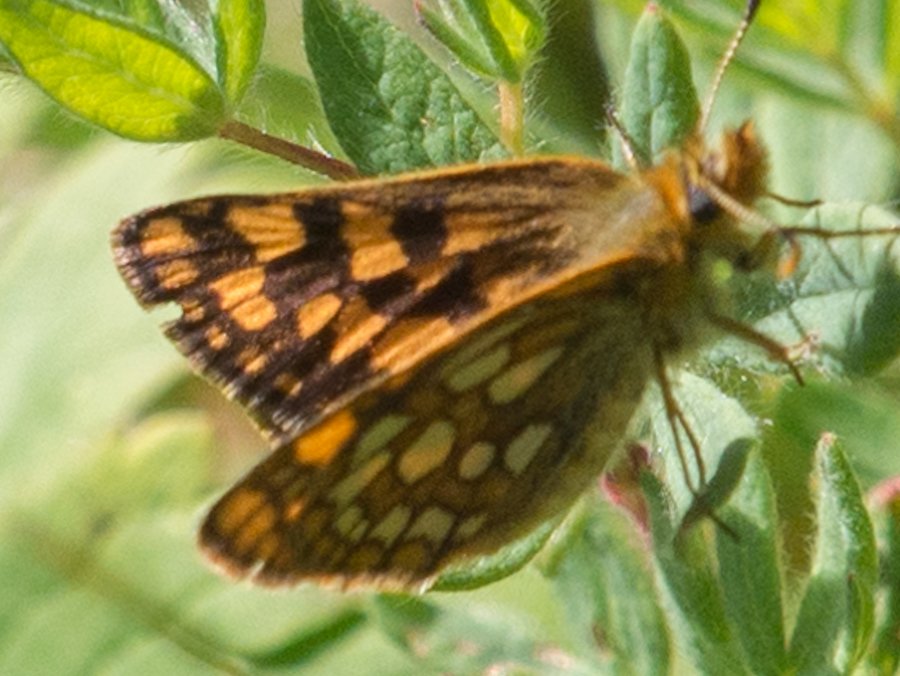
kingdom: Animalia
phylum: Arthropoda
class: Insecta
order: Lepidoptera
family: Hesperiidae
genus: Carterocephalus
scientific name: Carterocephalus palaemon
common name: Chequered Skipper
